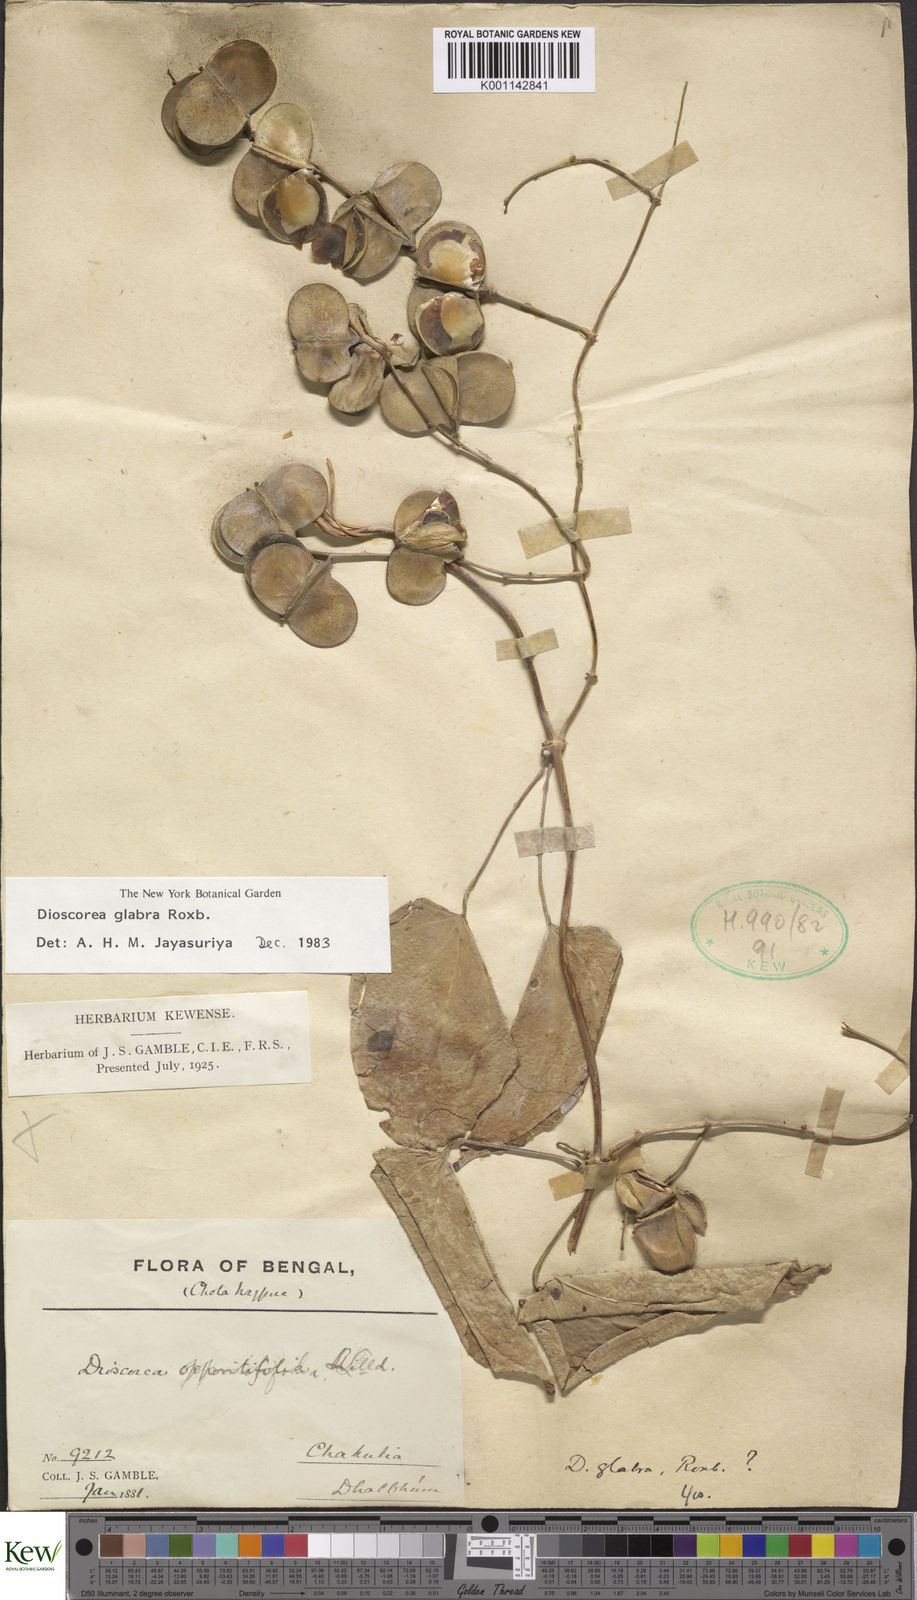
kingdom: Plantae
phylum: Tracheophyta
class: Liliopsida
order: Dioscoreales
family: Dioscoreaceae
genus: Dioscorea
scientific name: Dioscorea glabra
